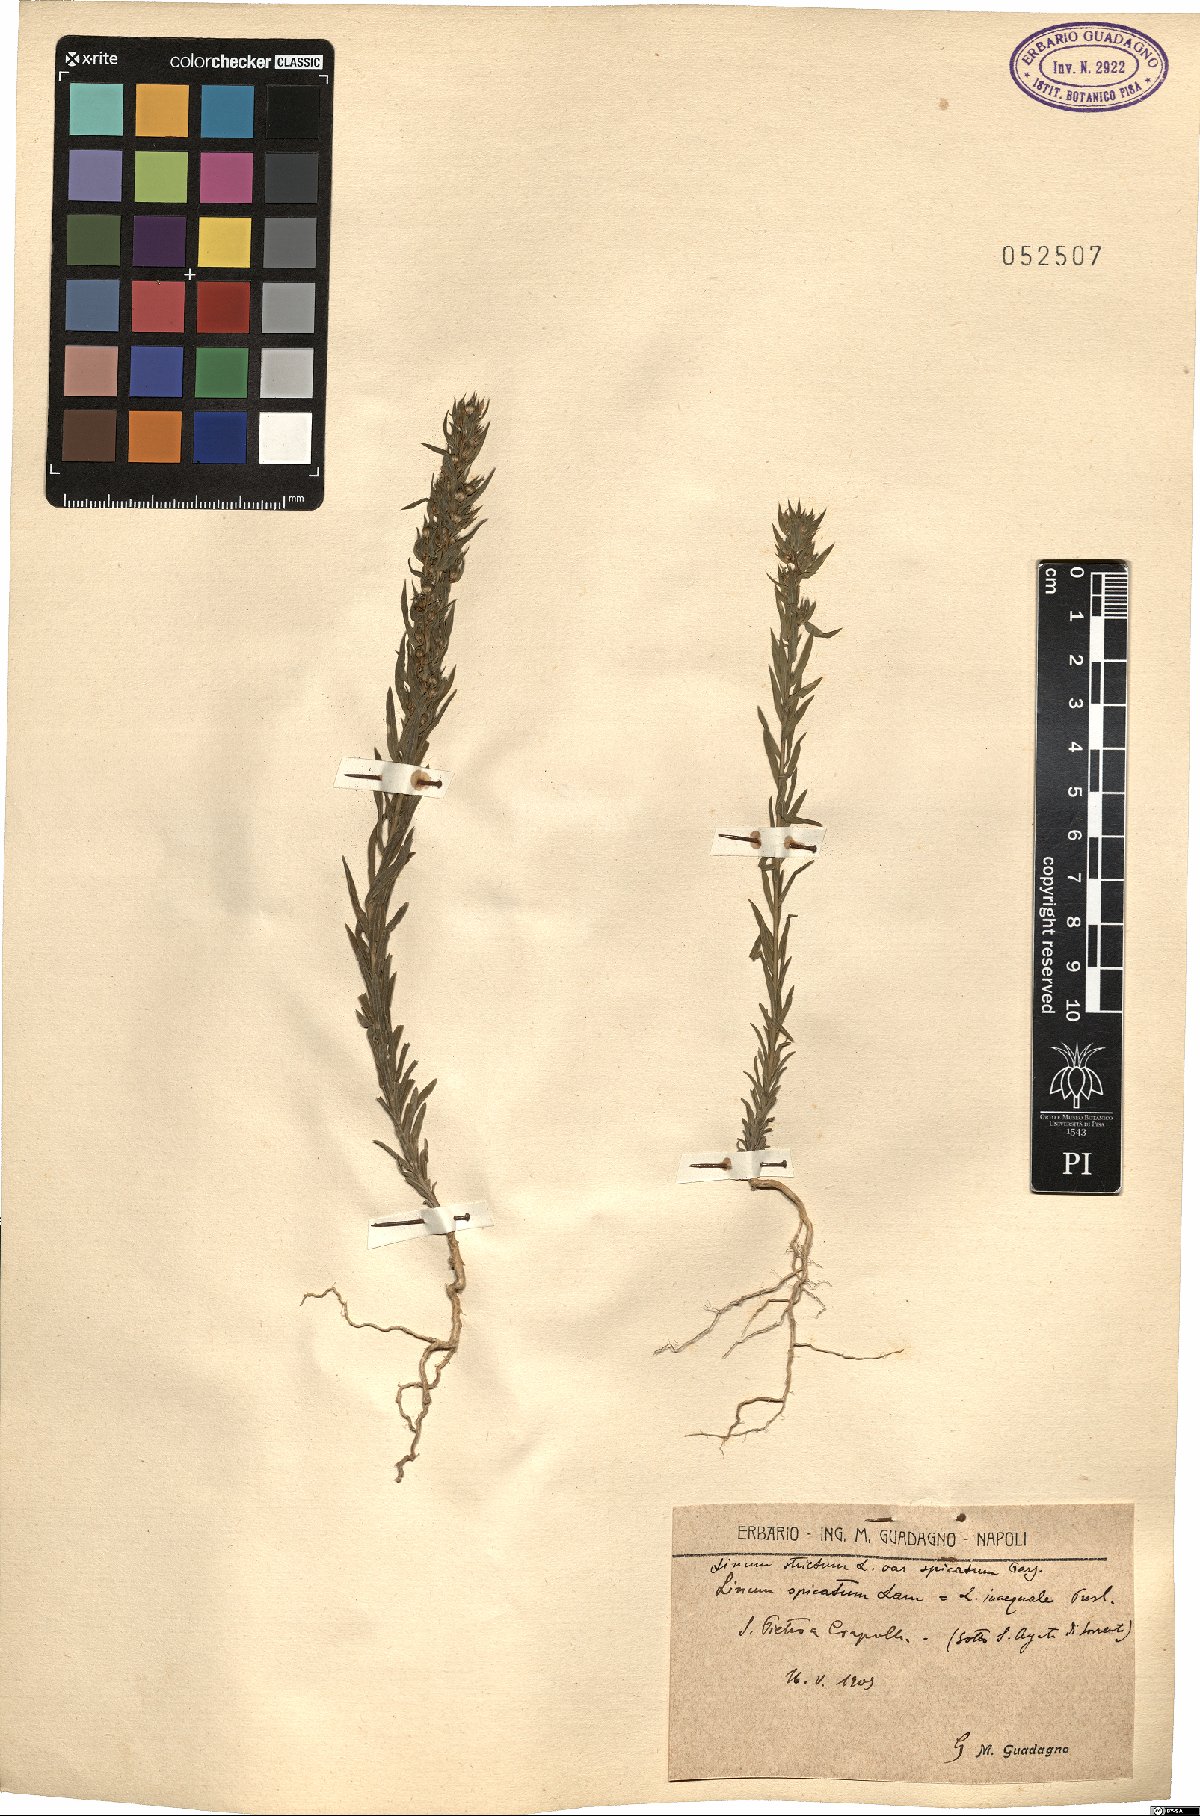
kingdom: Plantae
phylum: Tracheophyta
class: Magnoliopsida
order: Malpighiales
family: Linaceae
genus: Linum
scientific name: Linum strictum
